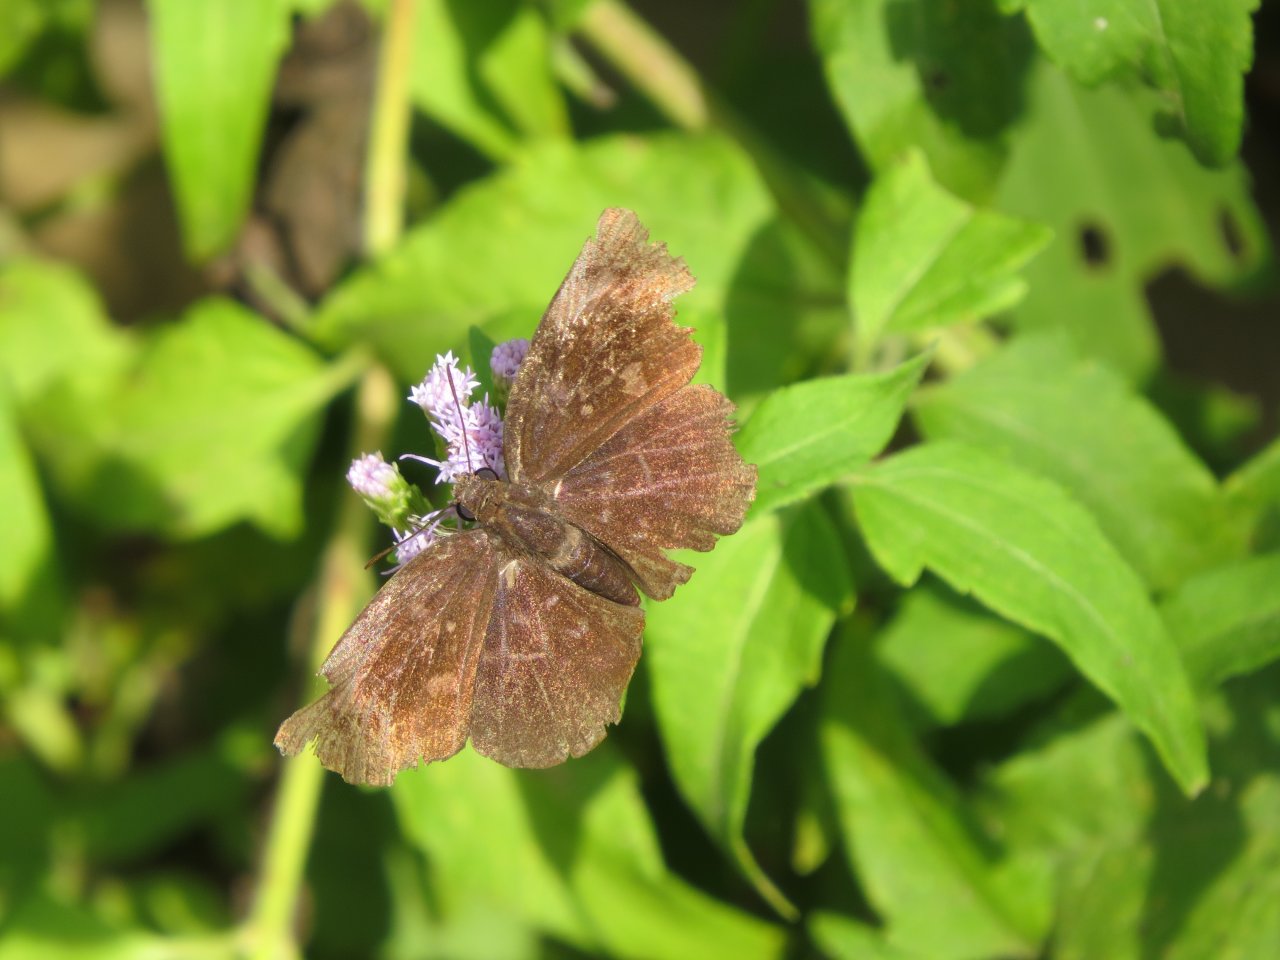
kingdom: Animalia
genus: Calephelis
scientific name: Calephelis nemesis
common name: Fatal Metalmark
